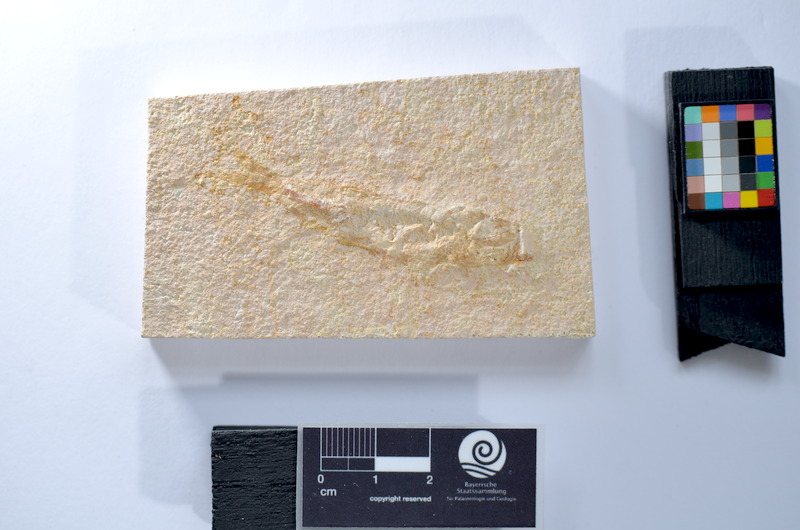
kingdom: Animalia
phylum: Chordata
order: Salmoniformes
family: Orthogonikleithridae
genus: Leptolepides
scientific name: Leptolepides
